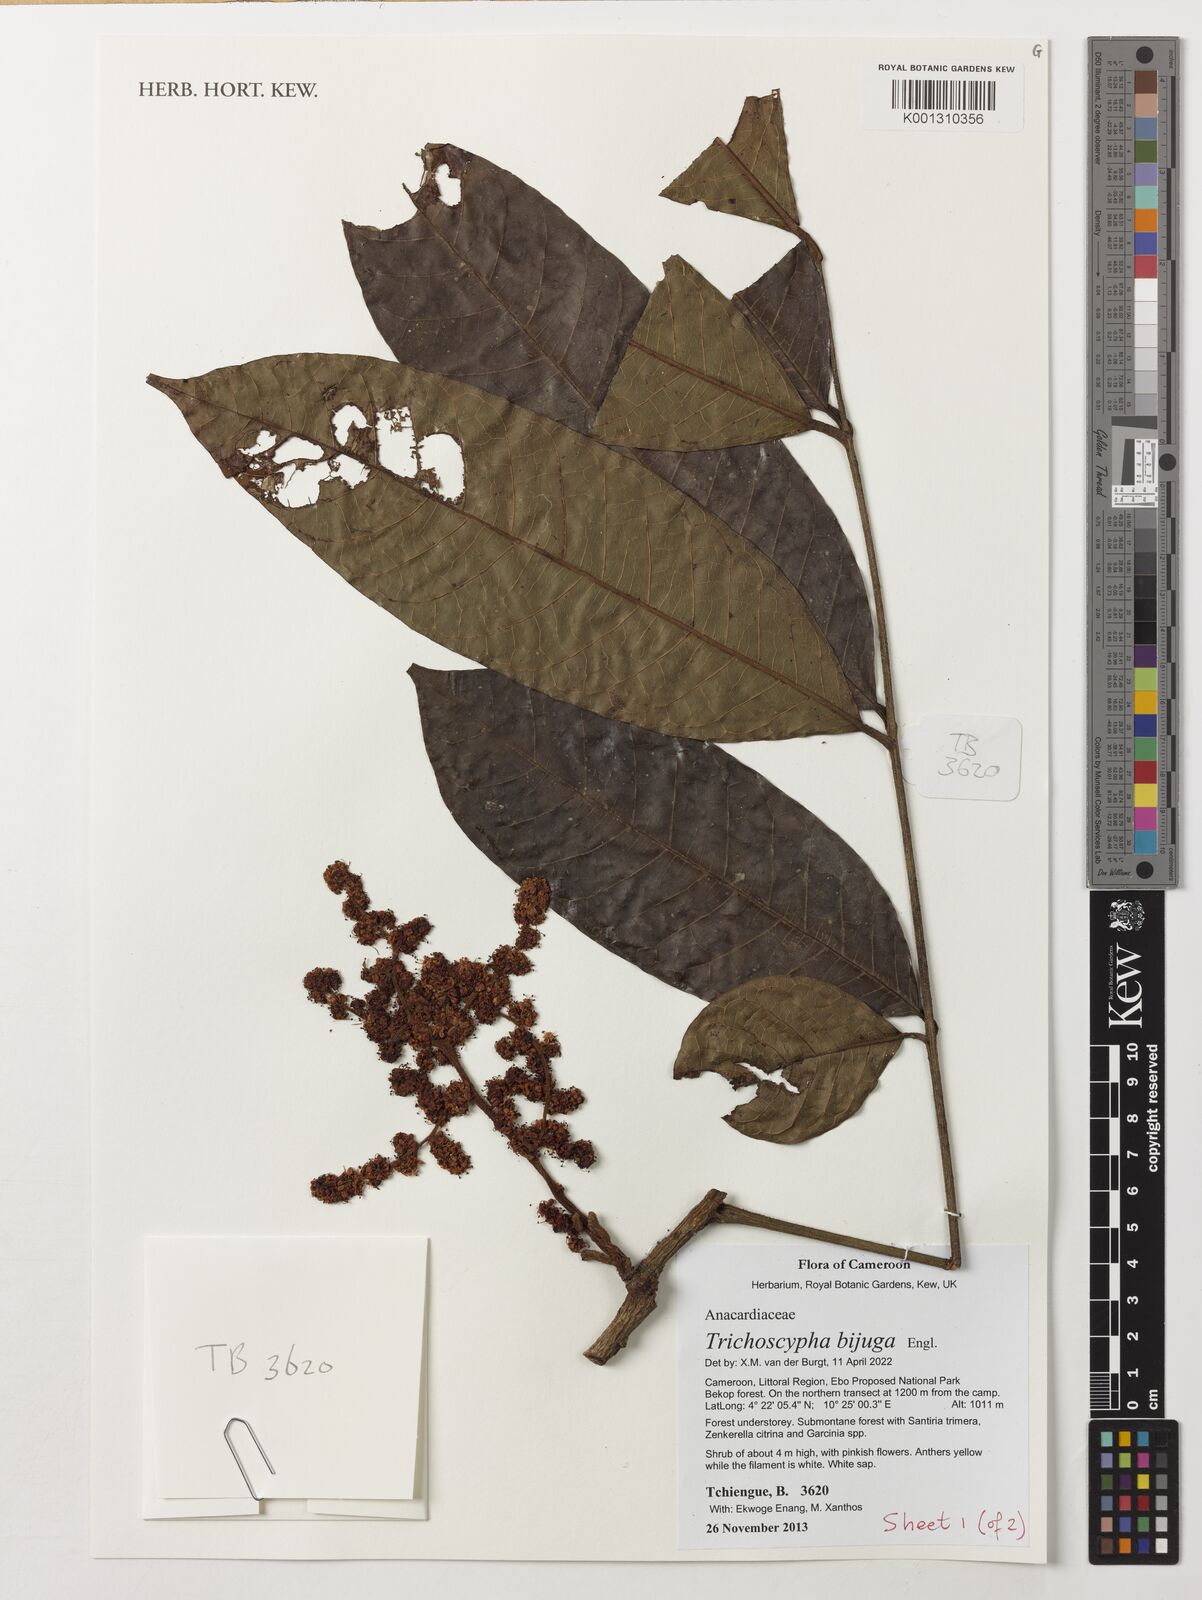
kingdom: Plantae
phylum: Tracheophyta
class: Magnoliopsida
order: Sapindales
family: Anacardiaceae
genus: Trichoscypha
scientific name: Trichoscypha bijuga
